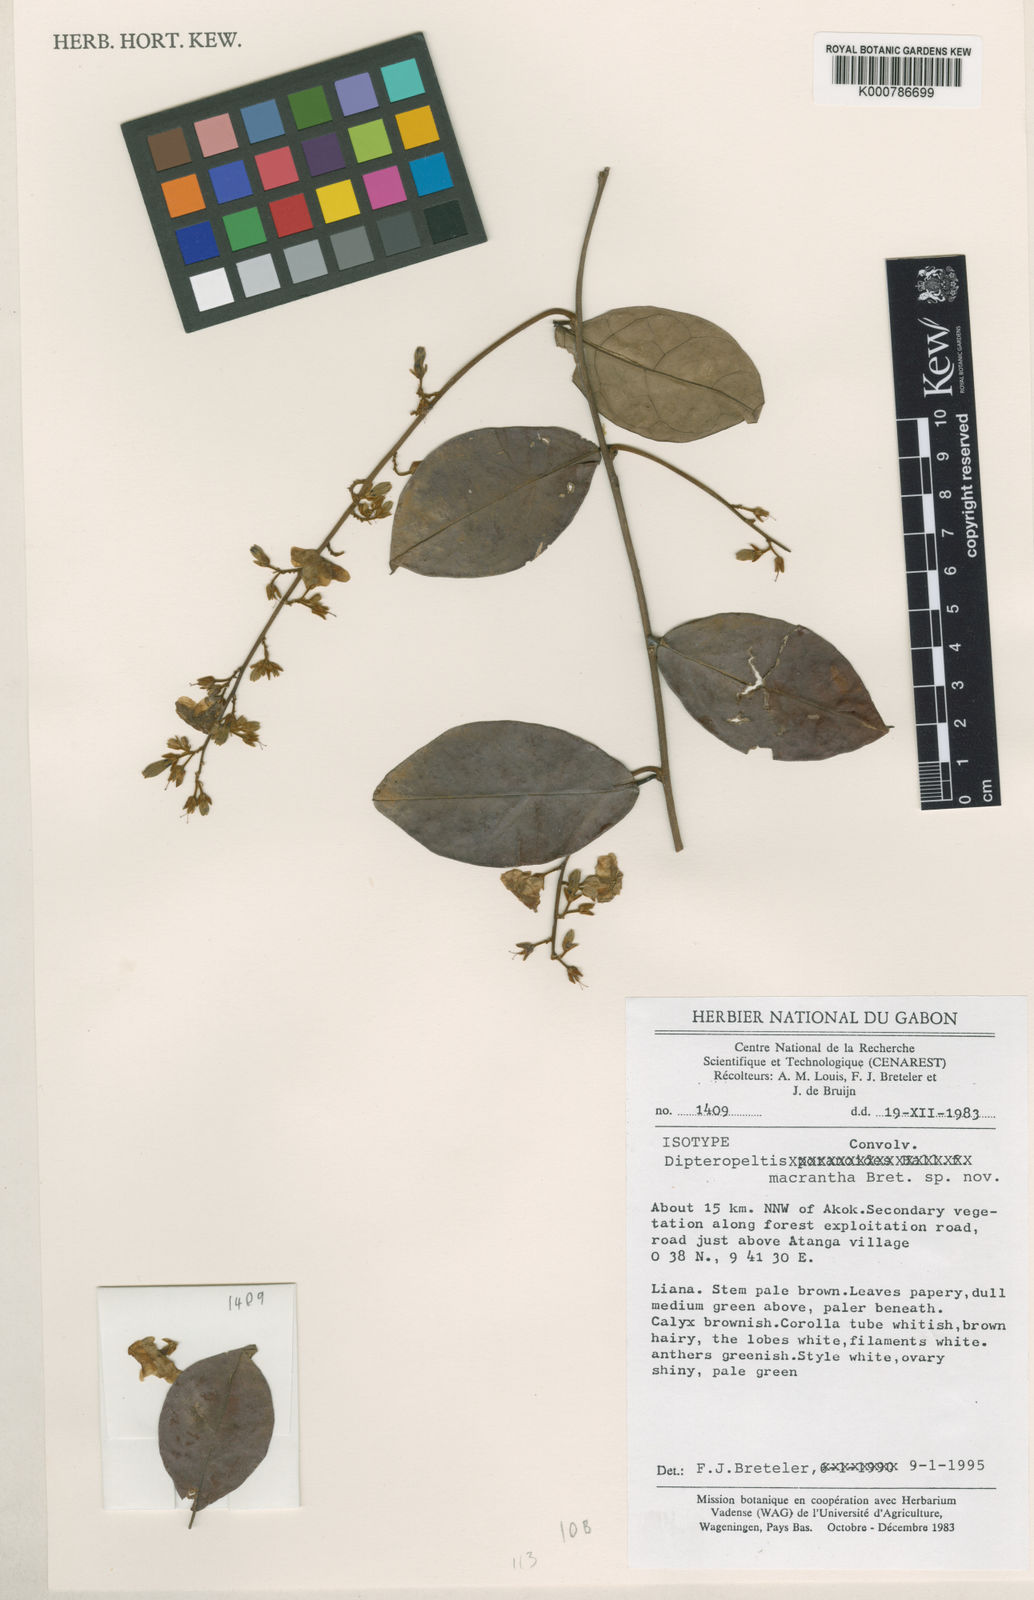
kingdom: Plantae
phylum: Tracheophyta
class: Magnoliopsida
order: Solanales
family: Convolvulaceae
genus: Dipteropeltis
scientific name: Dipteropeltis macrantha
